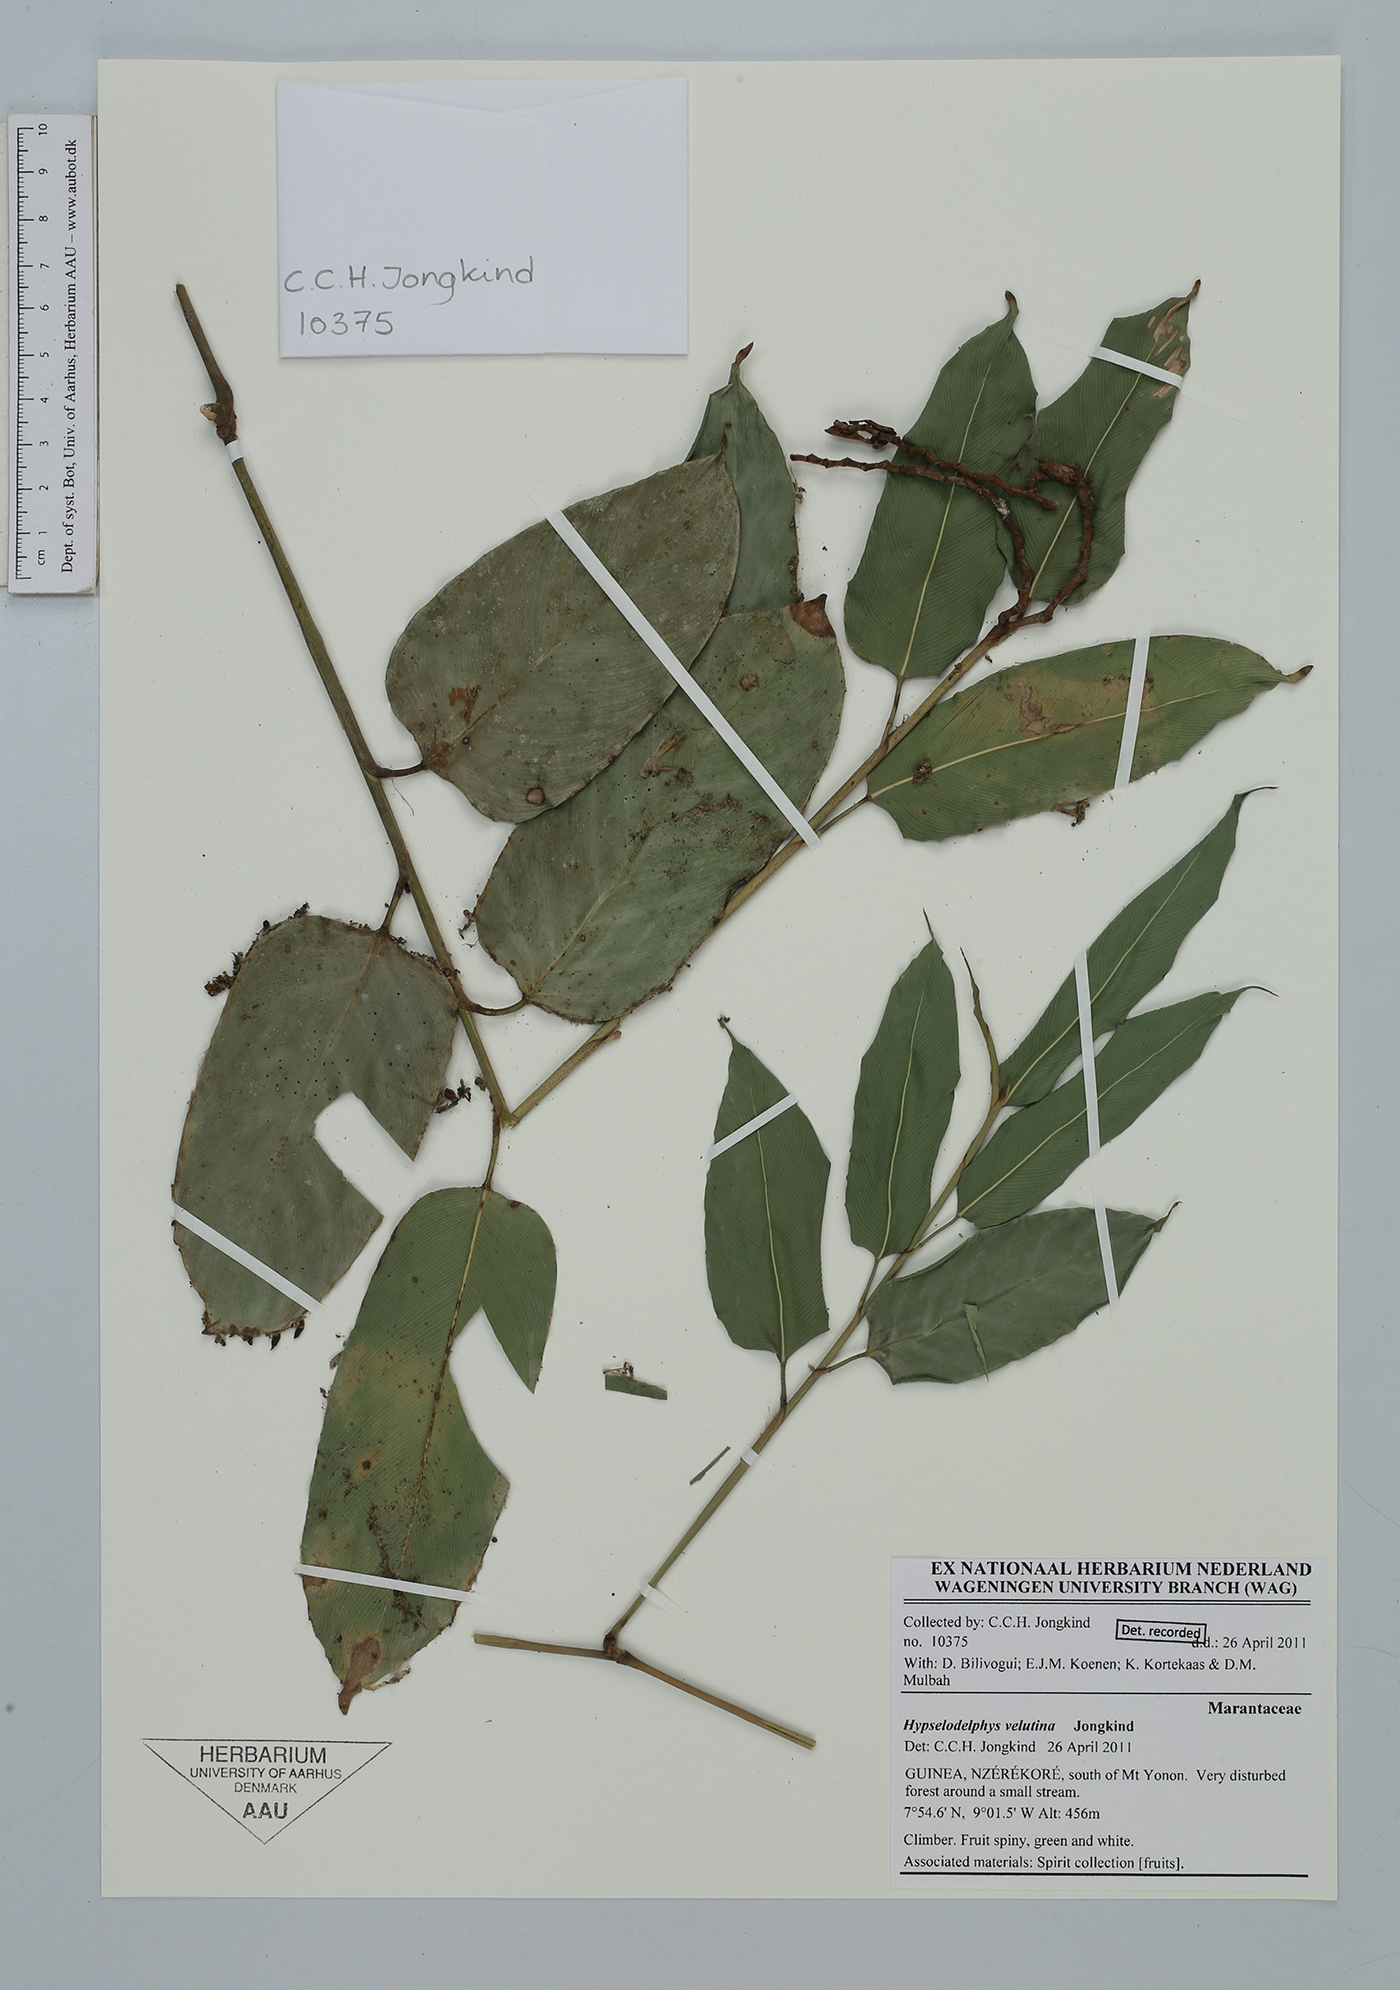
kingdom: Plantae
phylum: Tracheophyta
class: Liliopsida
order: Zingiberales
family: Marantaceae
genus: Hypselodelphys
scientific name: Hypselodelphys velutina
